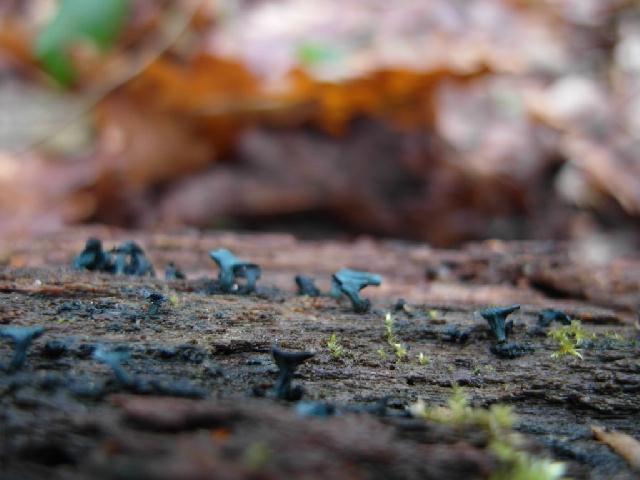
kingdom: Fungi
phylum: Ascomycota
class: Leotiomycetes
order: Helotiales
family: Chlorociboriaceae
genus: Chlorociboria
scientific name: Chlorociboria aeruginascens
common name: almindelig grønskive
